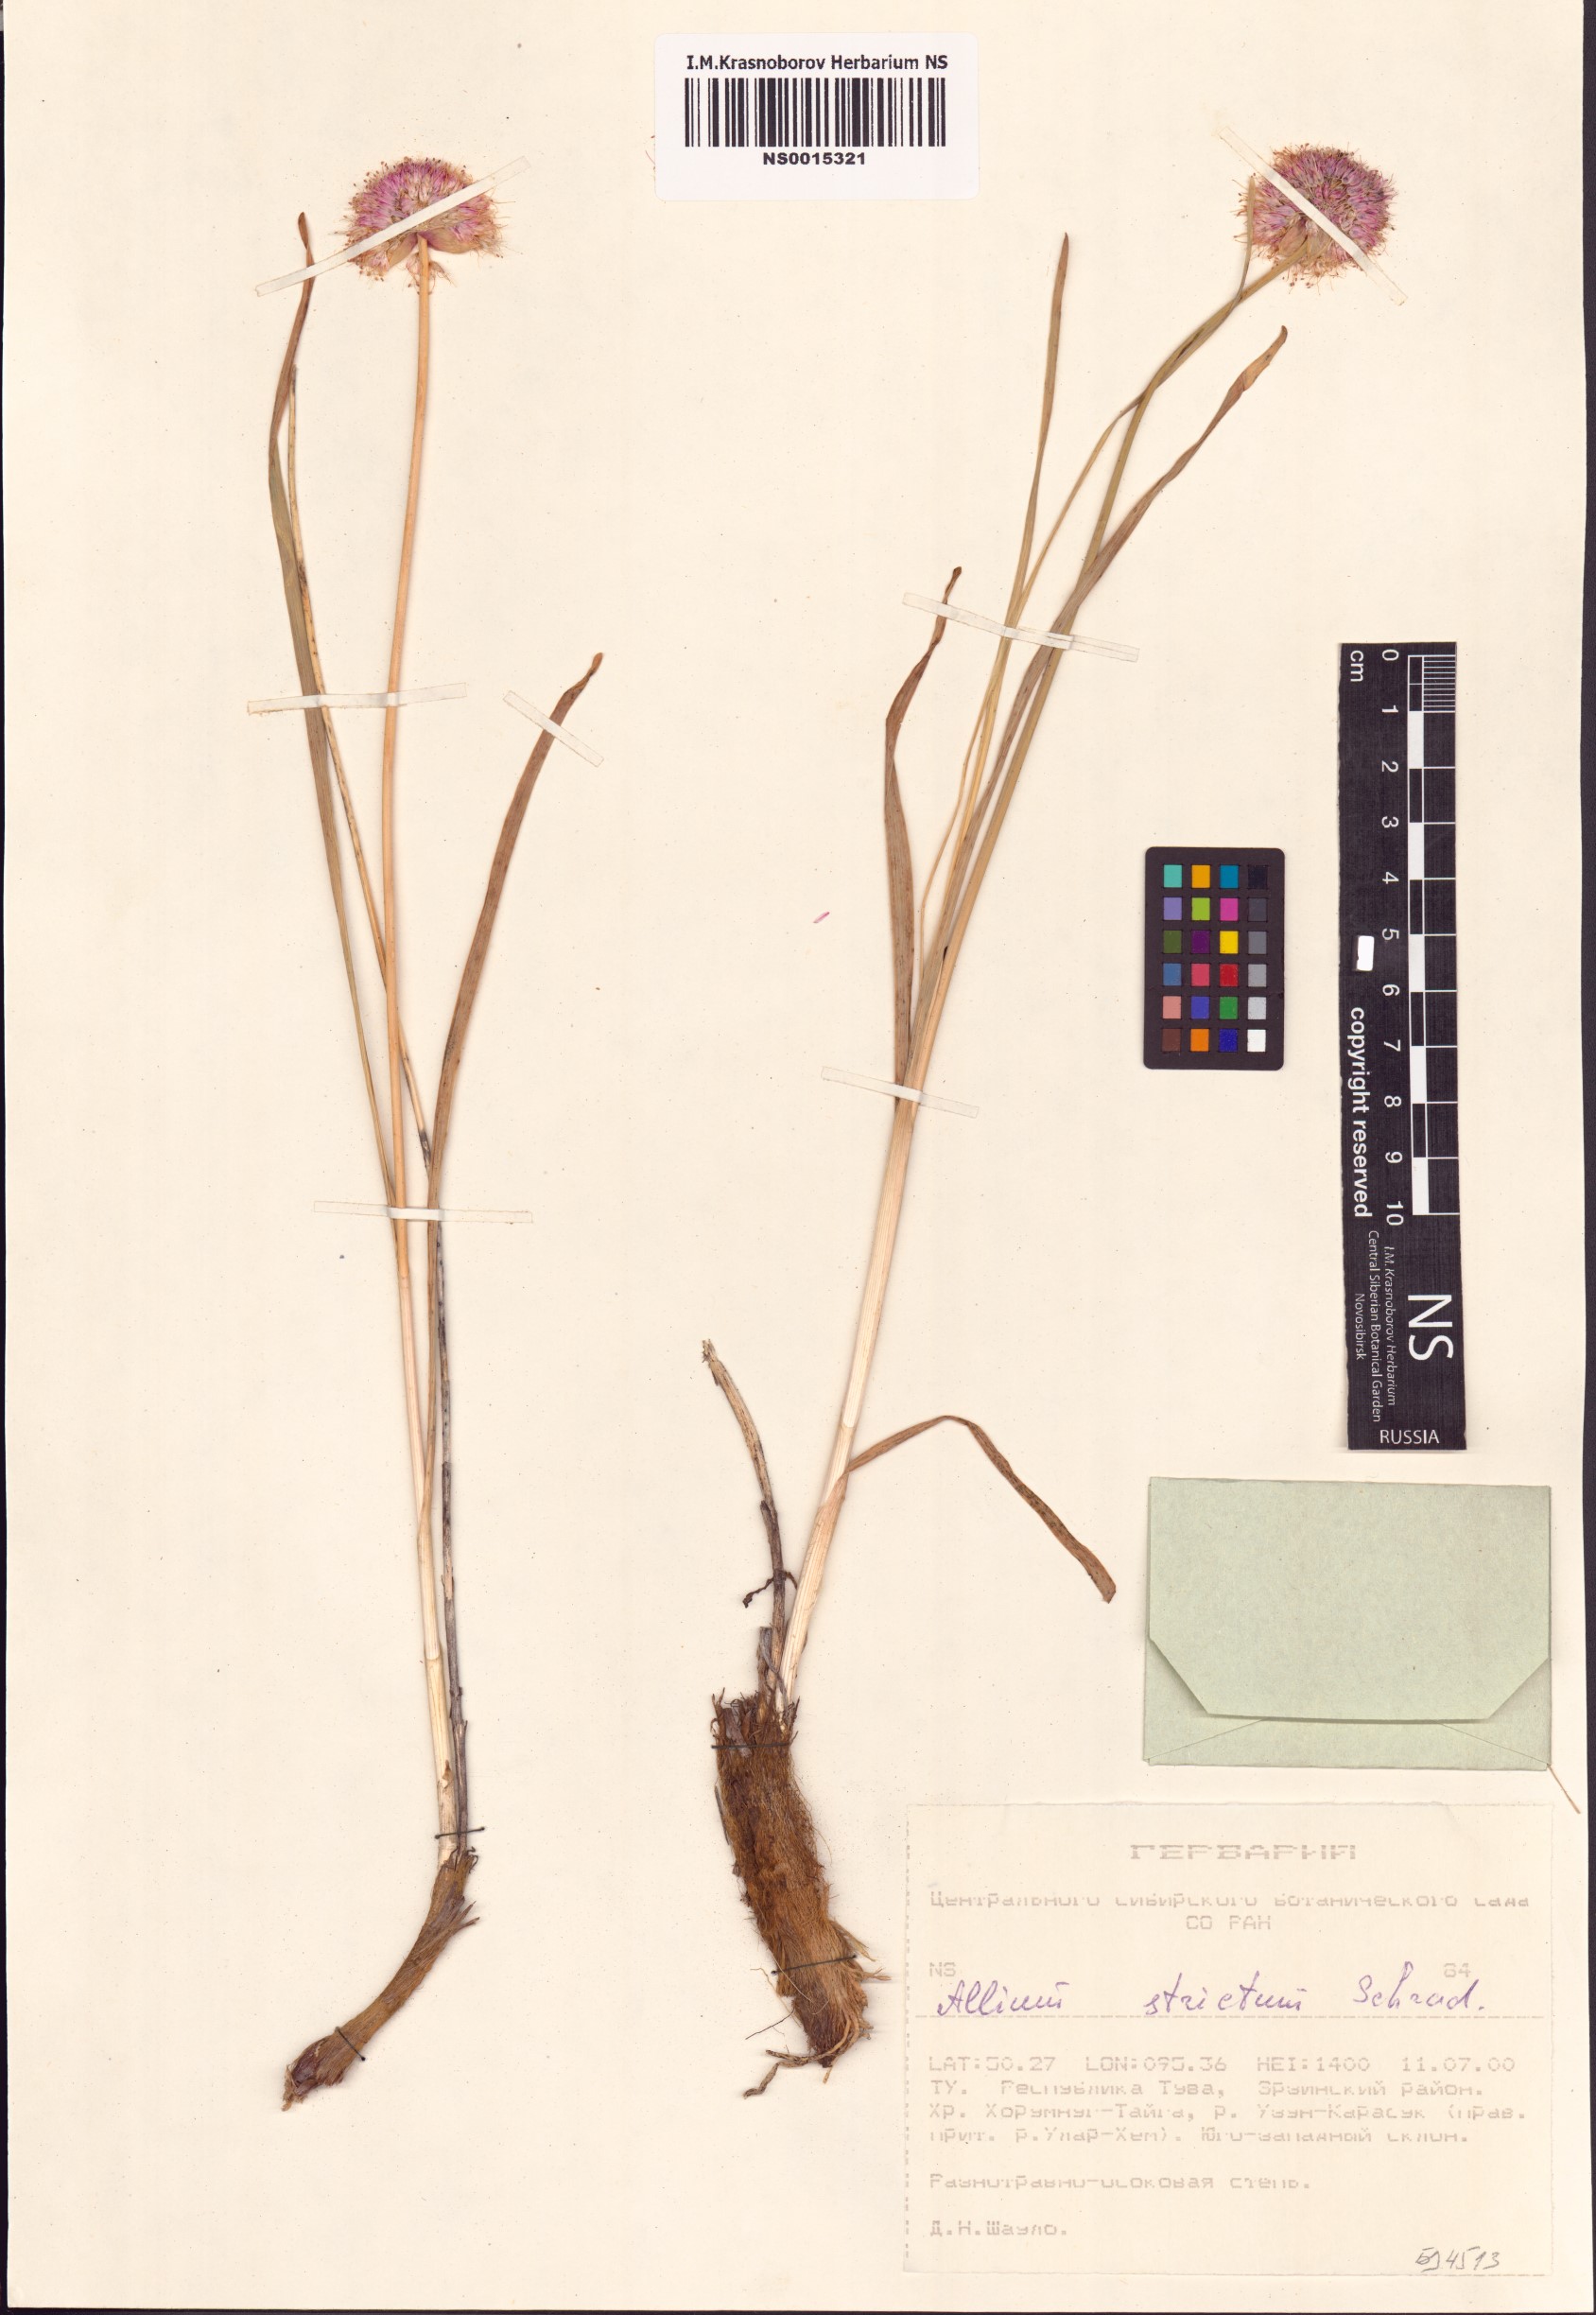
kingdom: Plantae
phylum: Tracheophyta
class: Liliopsida
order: Asparagales
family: Amaryllidaceae
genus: Allium
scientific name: Allium strictum
